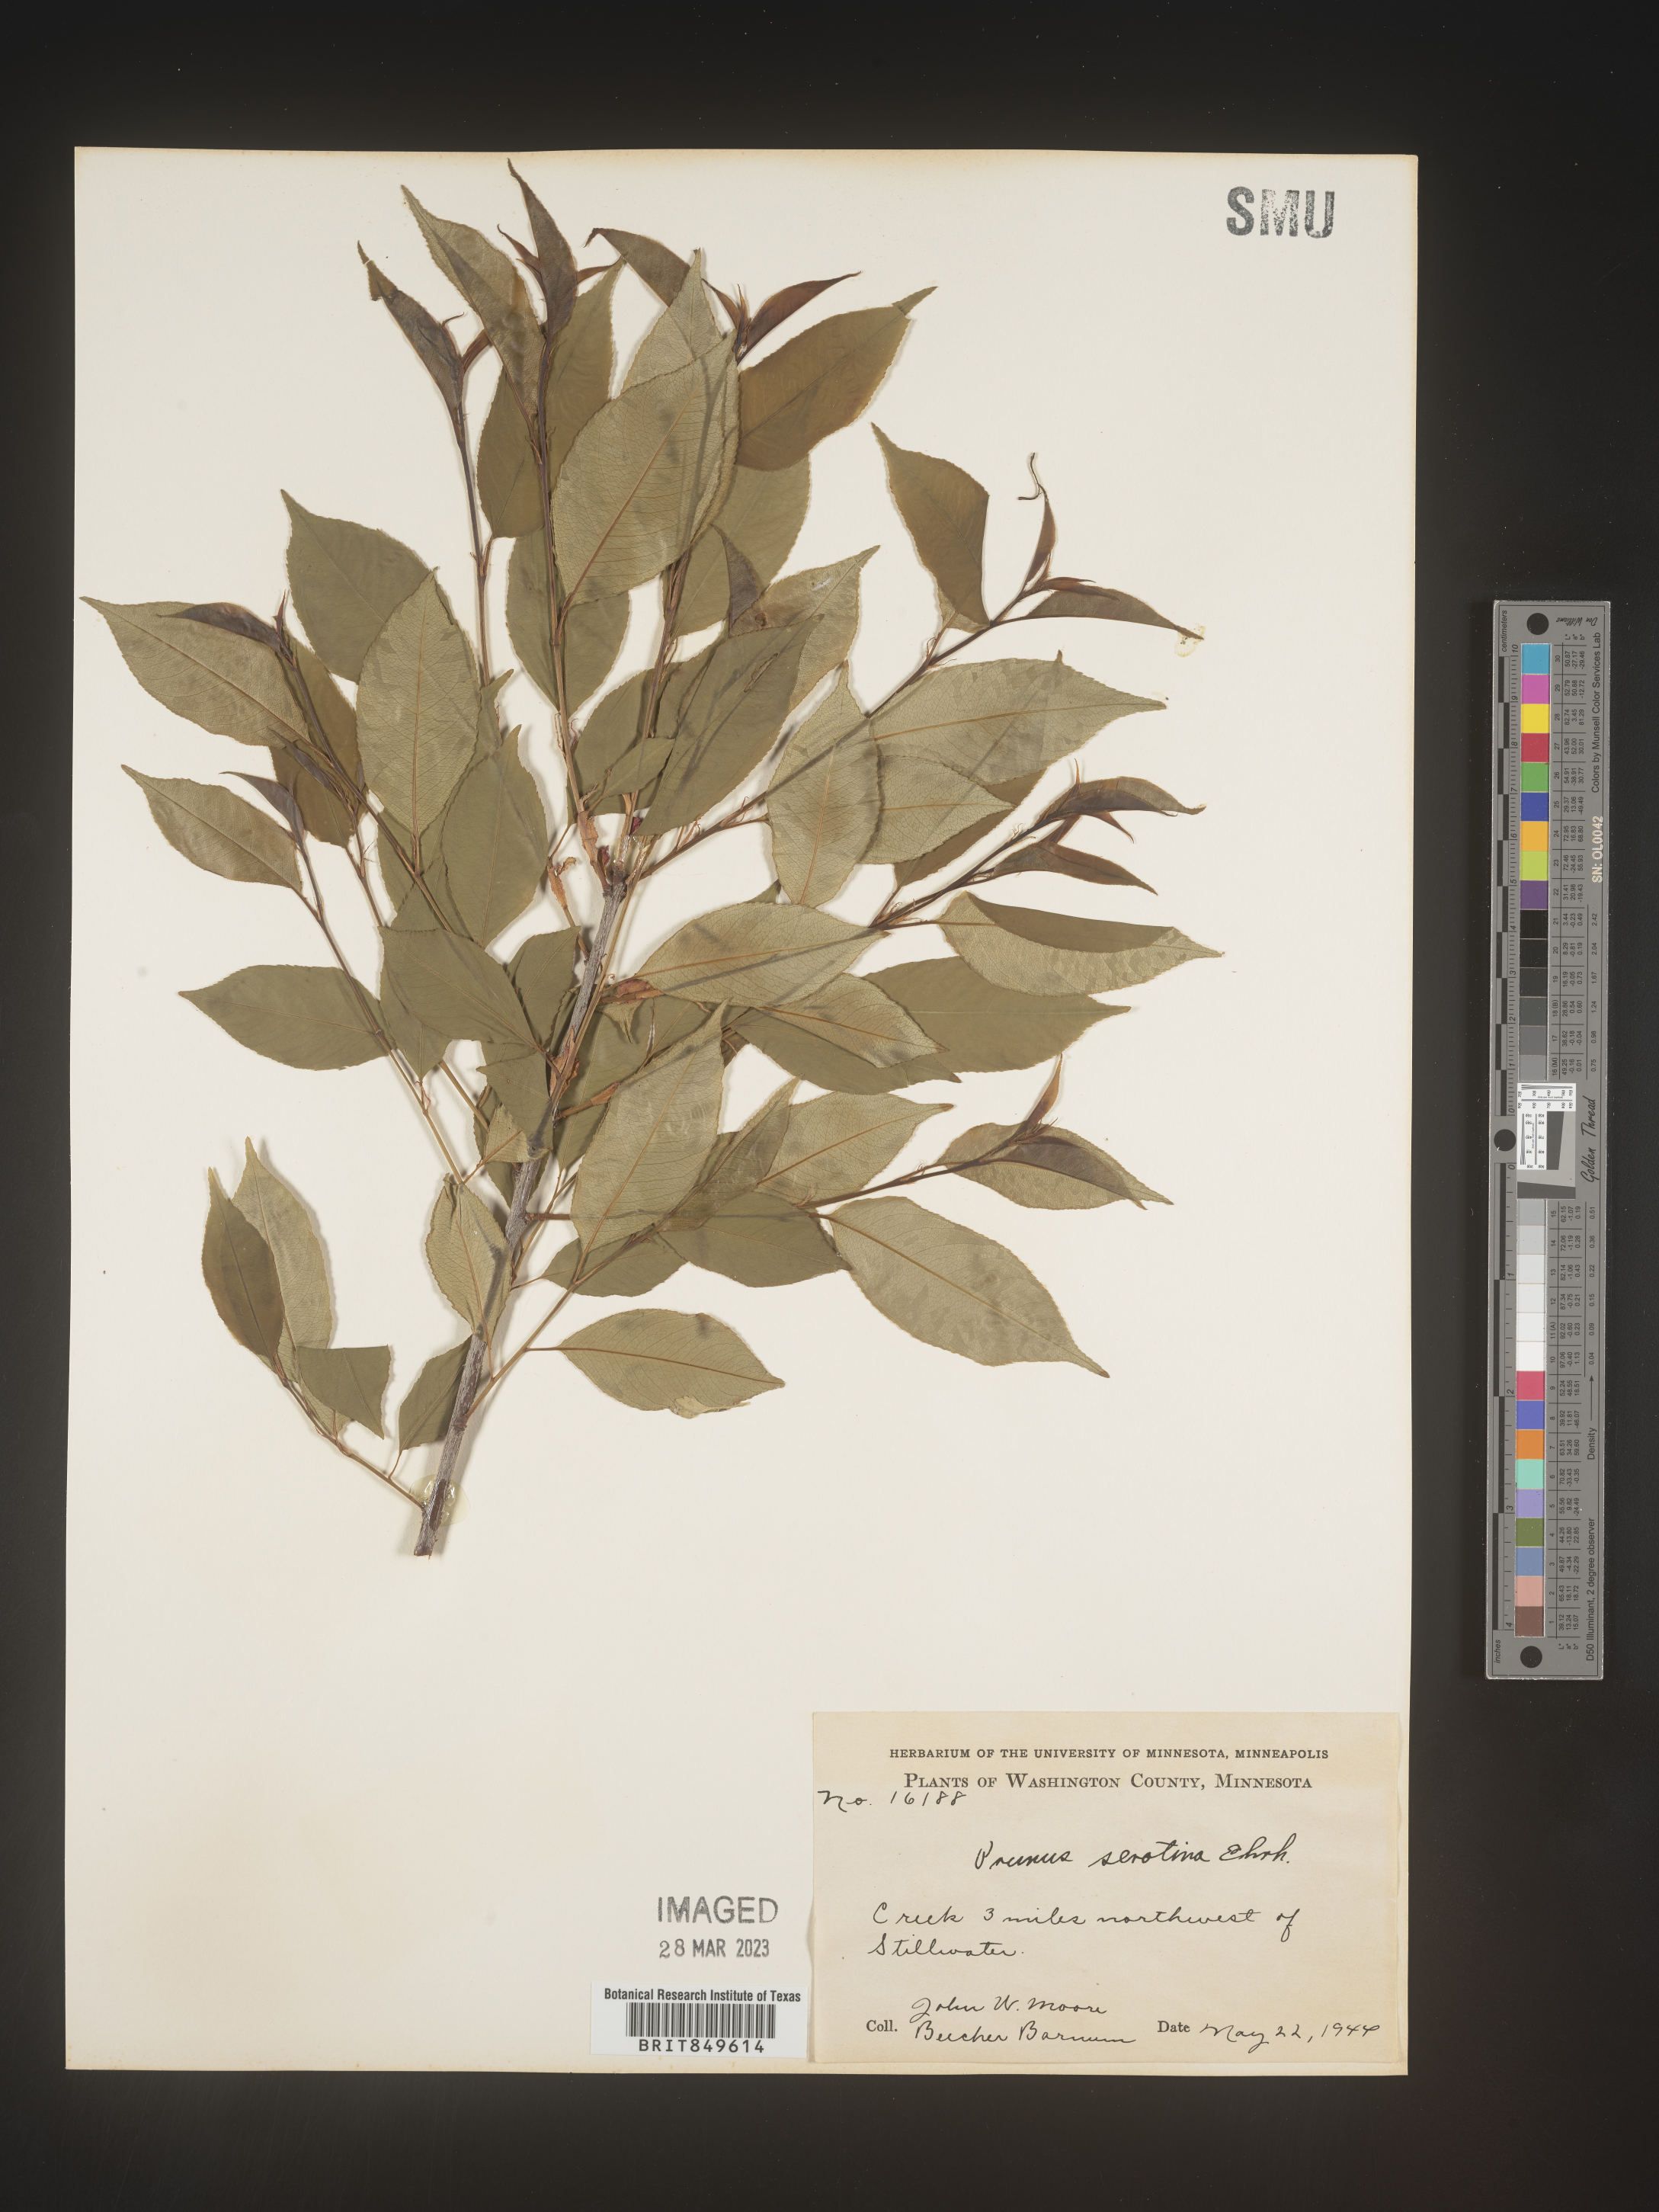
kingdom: Plantae
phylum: Tracheophyta
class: Magnoliopsida
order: Rosales
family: Rosaceae
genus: Prunus
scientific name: Prunus serotina
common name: Black cherry
